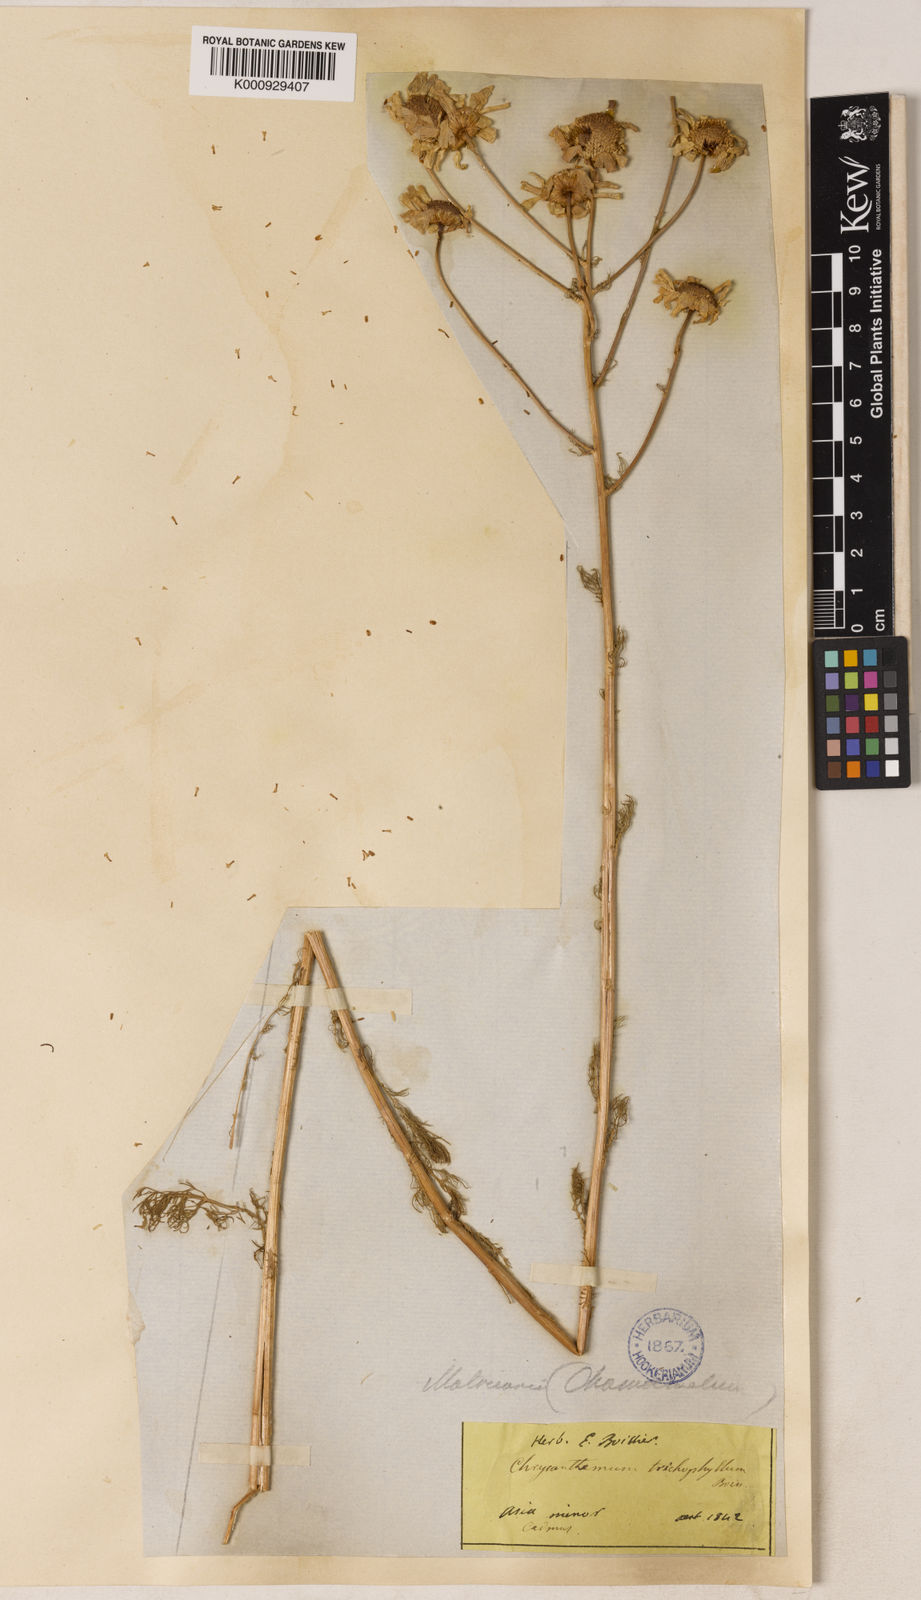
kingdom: Plantae
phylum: Tracheophyta
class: Magnoliopsida
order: Asterales
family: Asteraceae
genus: Tripleurospermum
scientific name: Tripleurospermum tenuifolium
